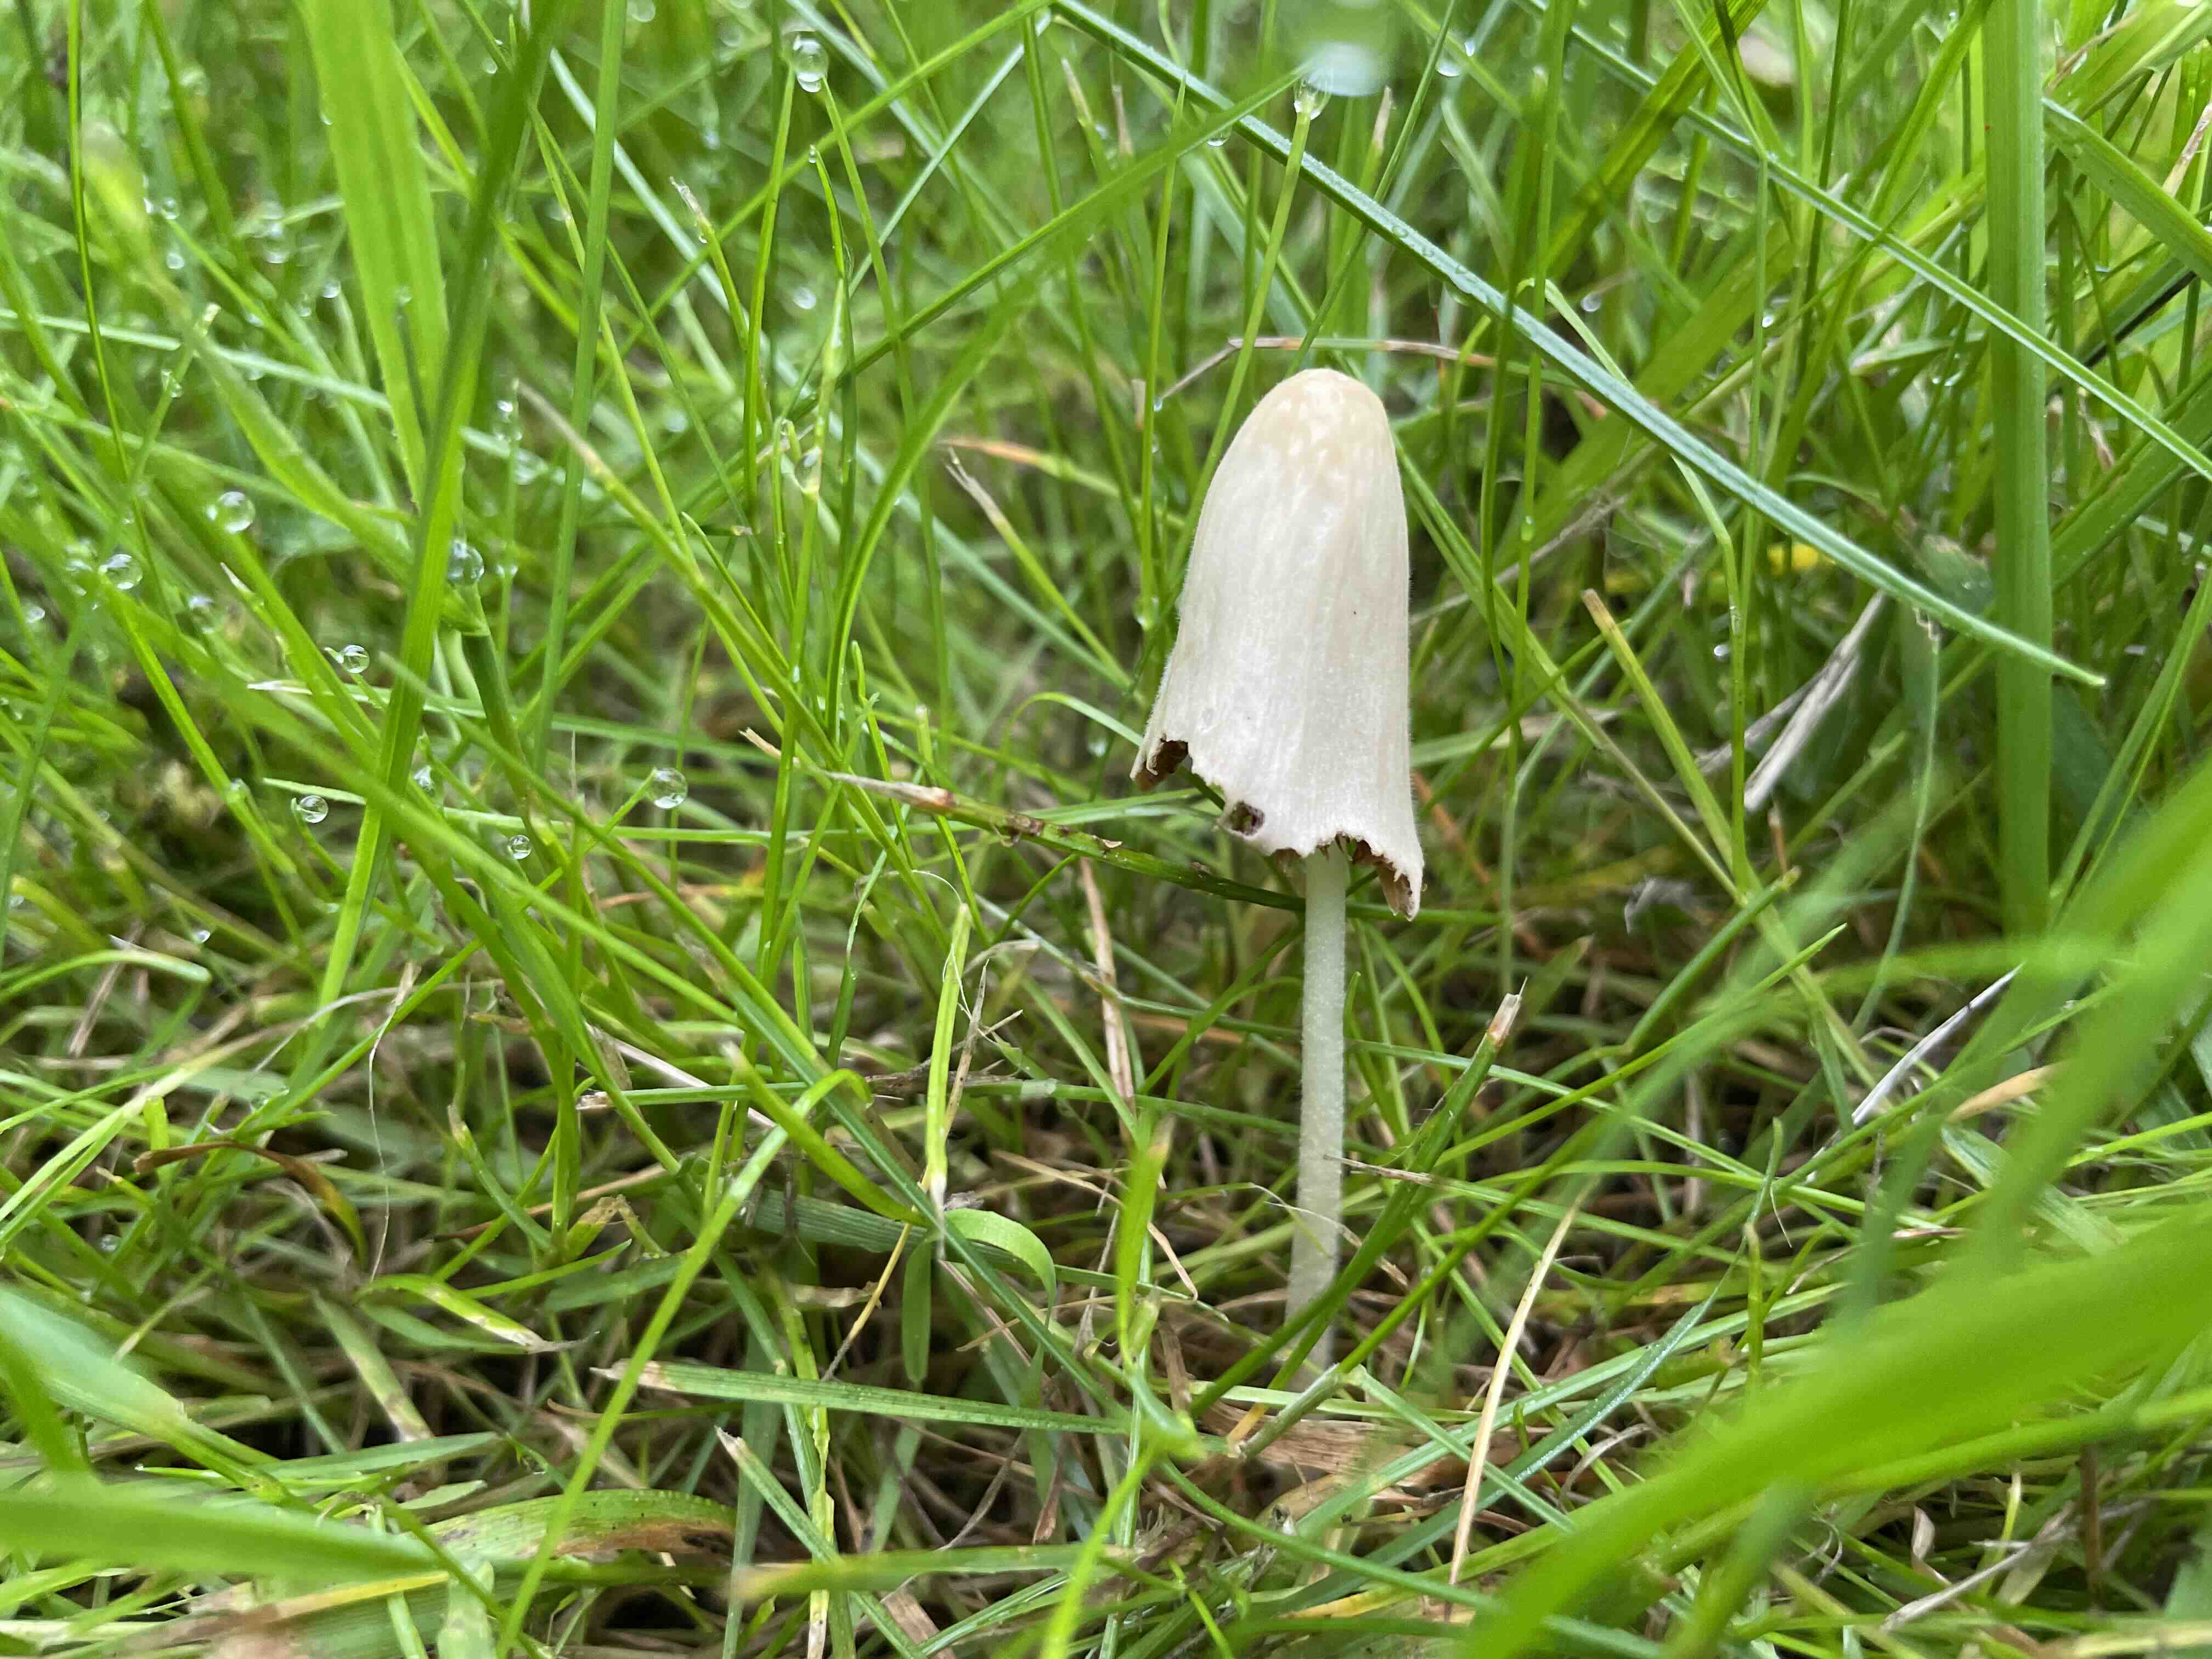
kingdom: Fungi
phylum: Basidiomycota
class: Agaricomycetes
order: Agaricales
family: Bolbitiaceae
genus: Conocybe
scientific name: Conocybe apala
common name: mælkehvid keglehat
